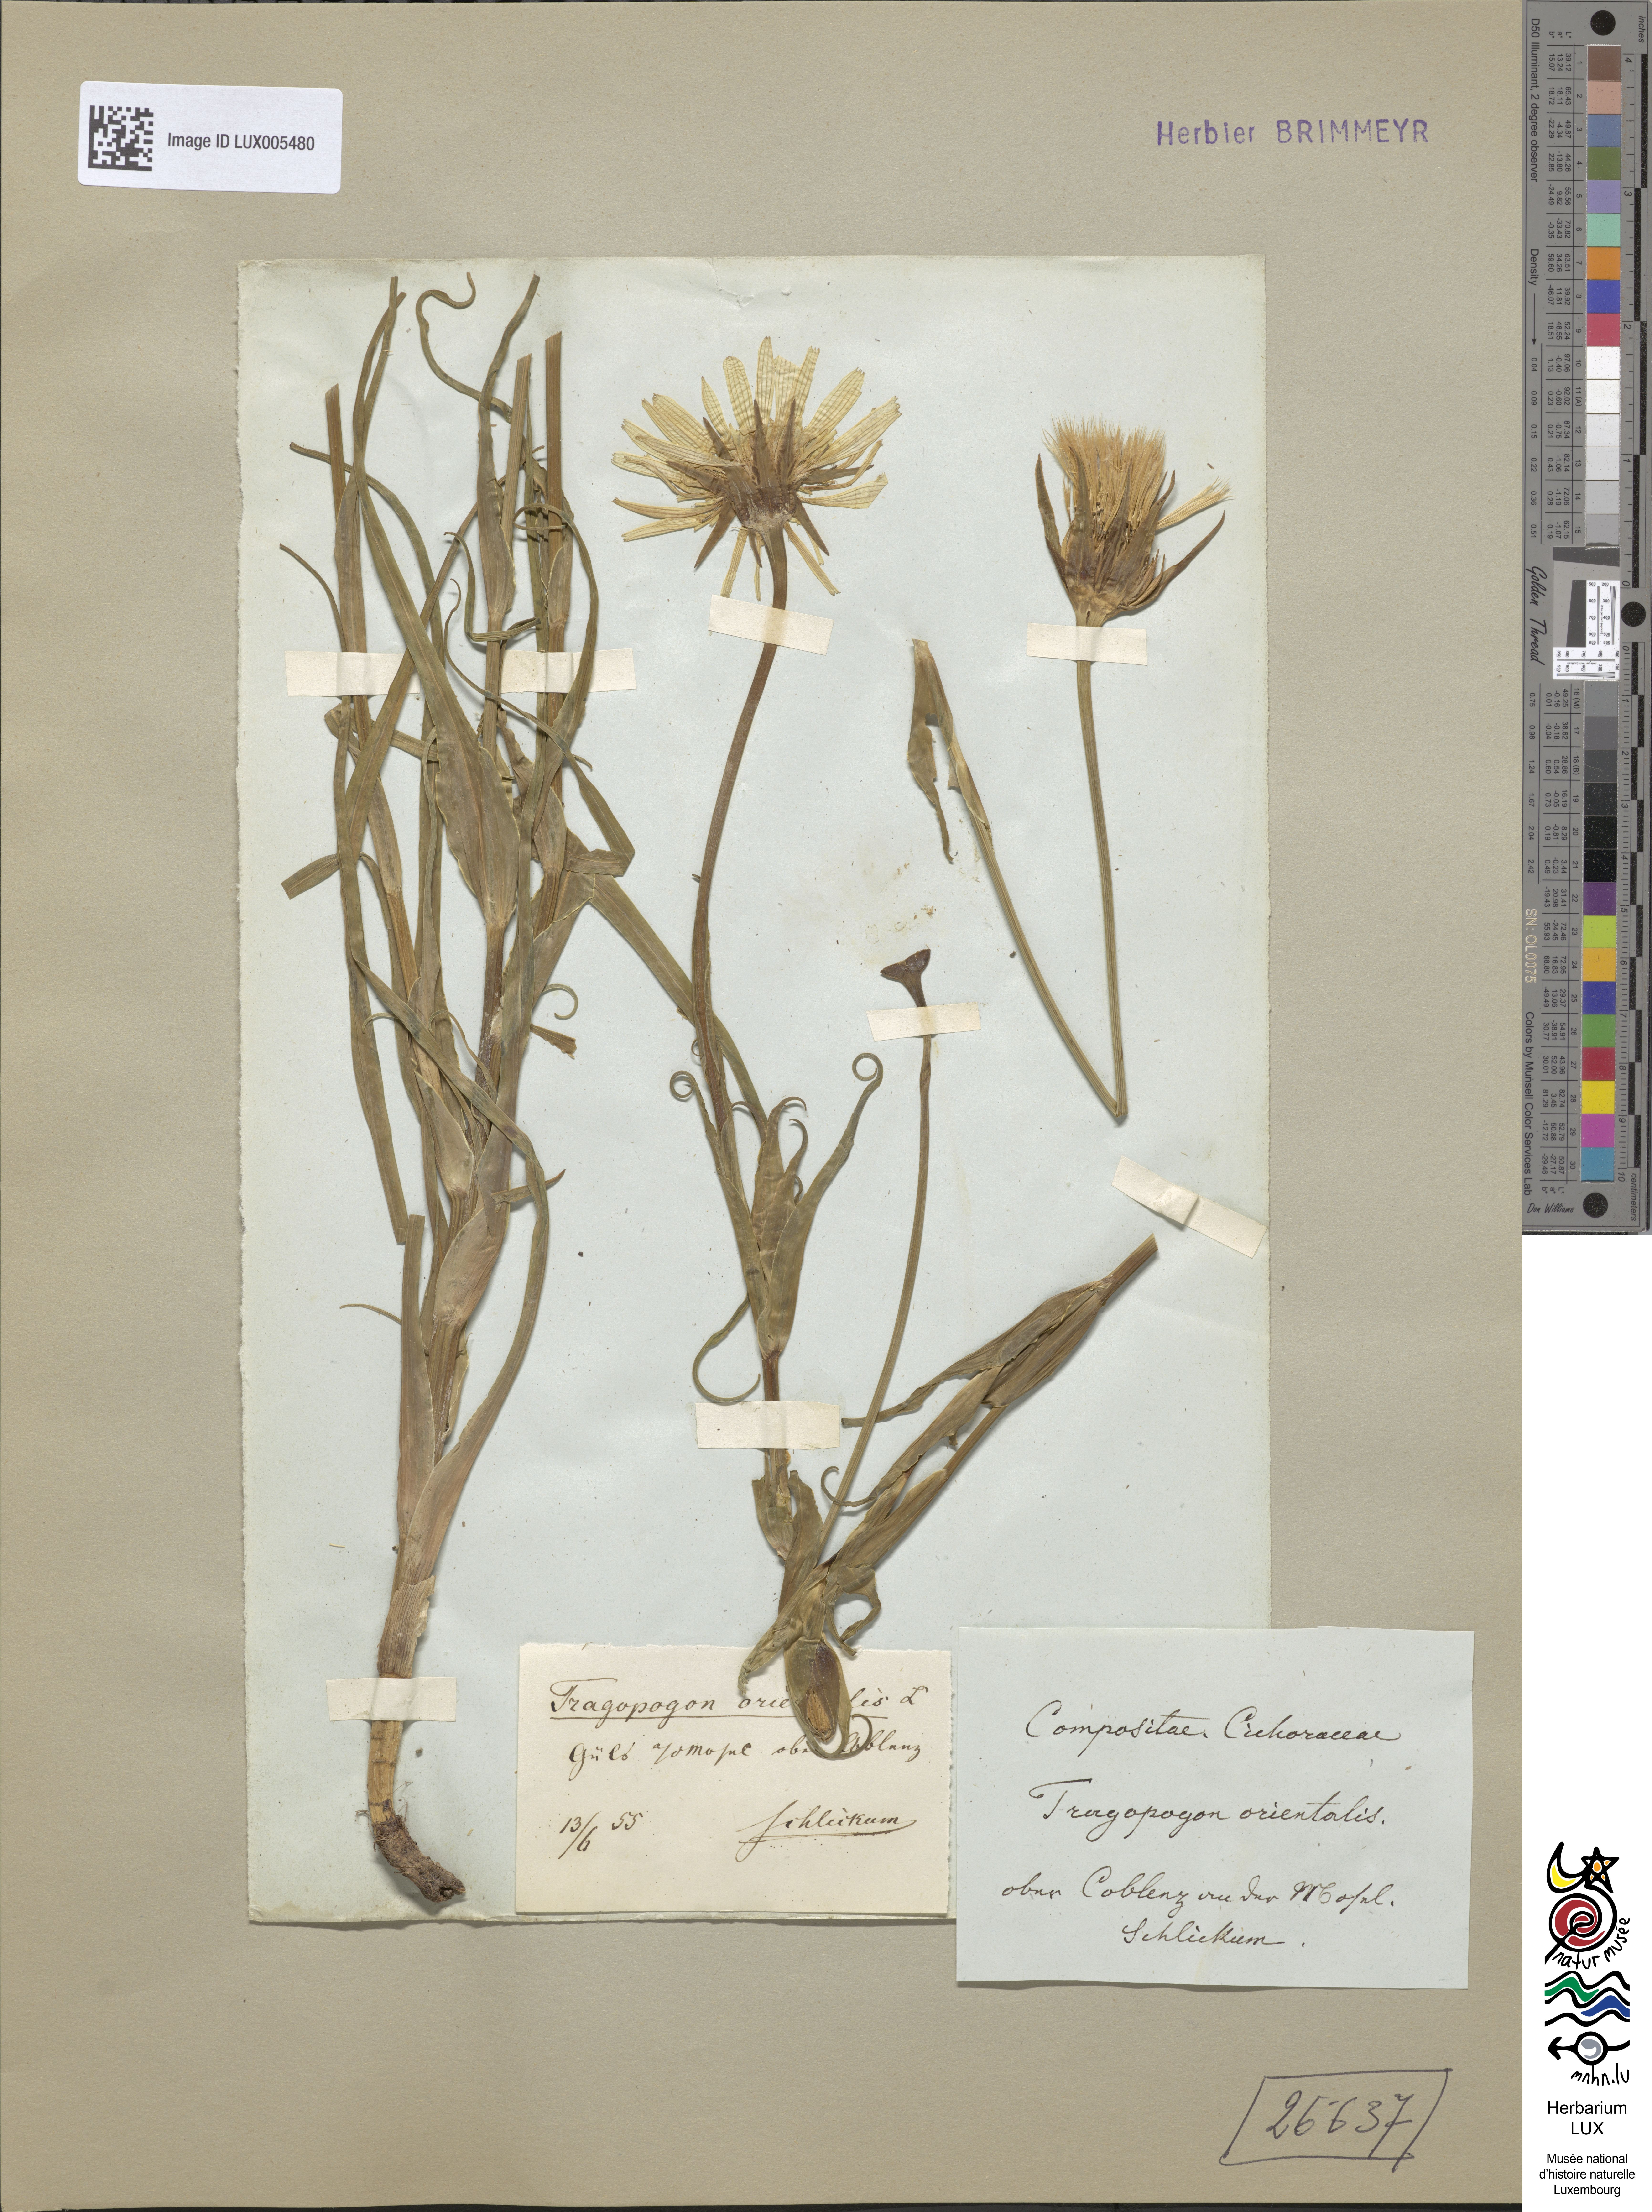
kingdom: Plantae
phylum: Tracheophyta
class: Magnoliopsida
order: Asterales
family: Asteraceae
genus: Tragopogon
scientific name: Tragopogon orientalis
